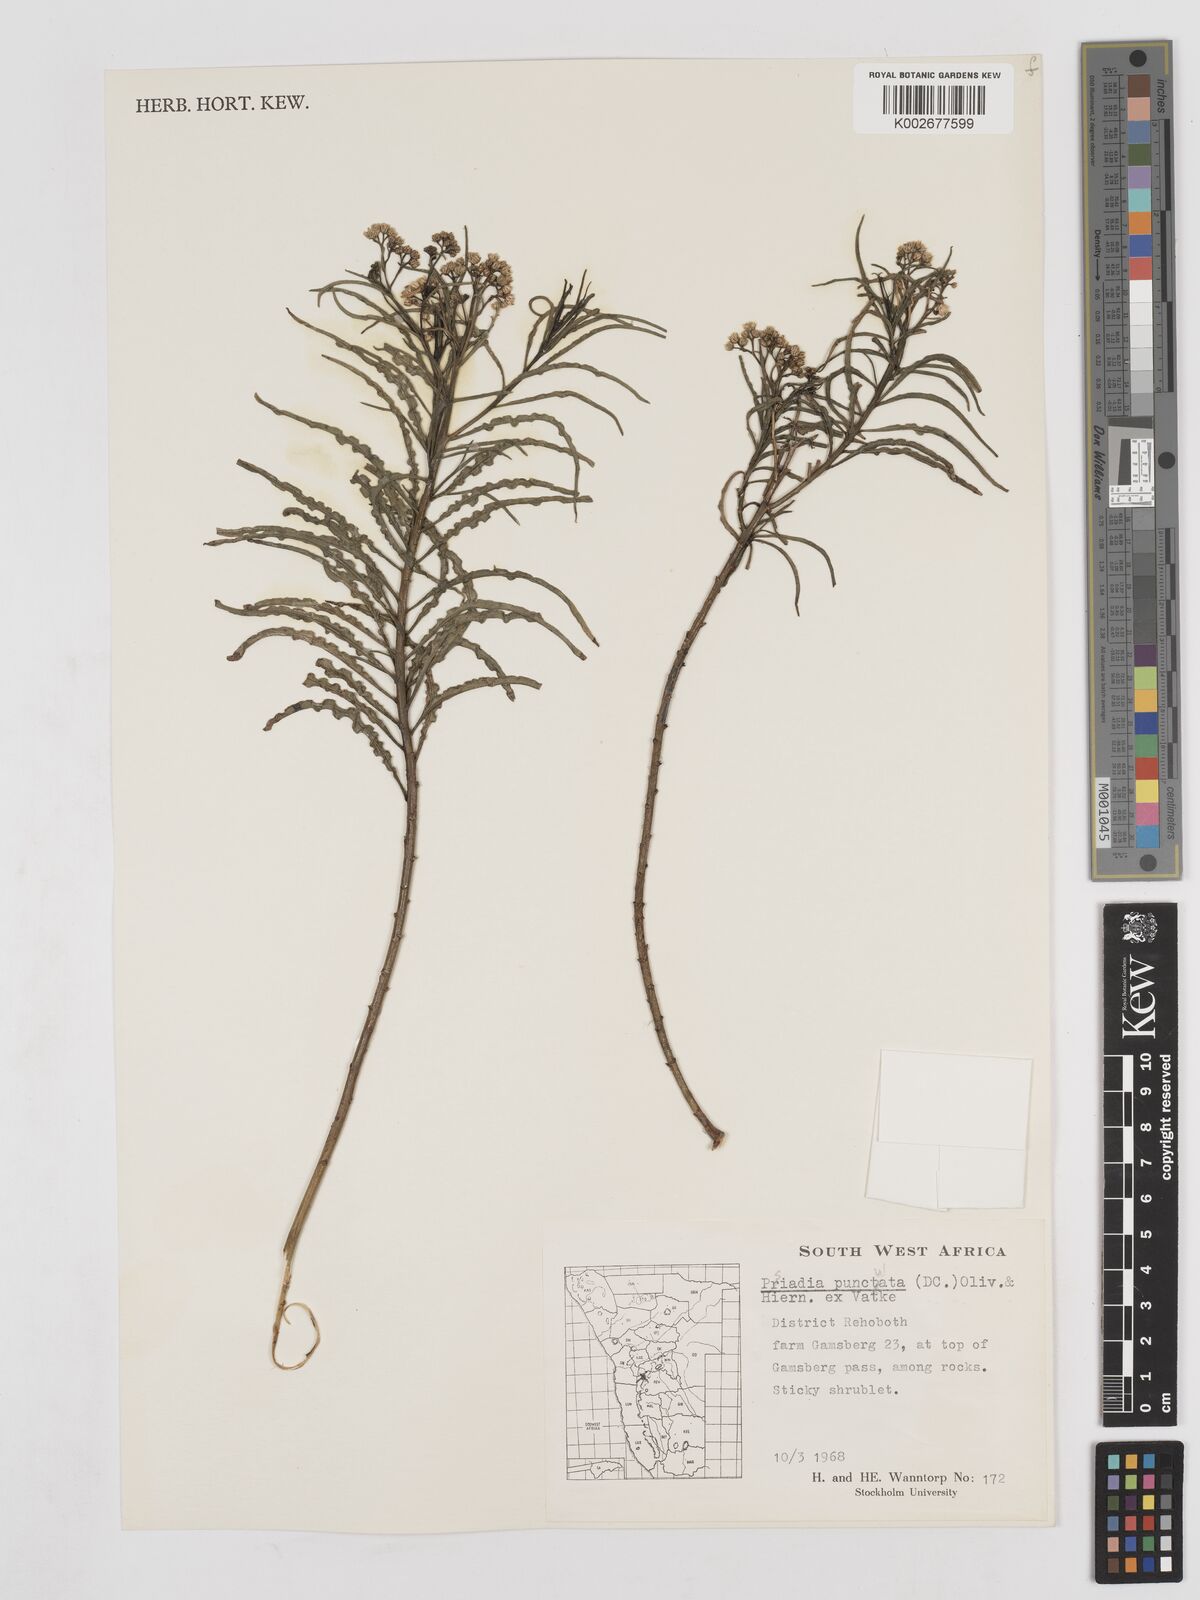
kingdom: Plantae
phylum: Tracheophyta
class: Magnoliopsida
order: Asterales
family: Asteraceae
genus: Psiadia
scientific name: Psiadia punctulata
